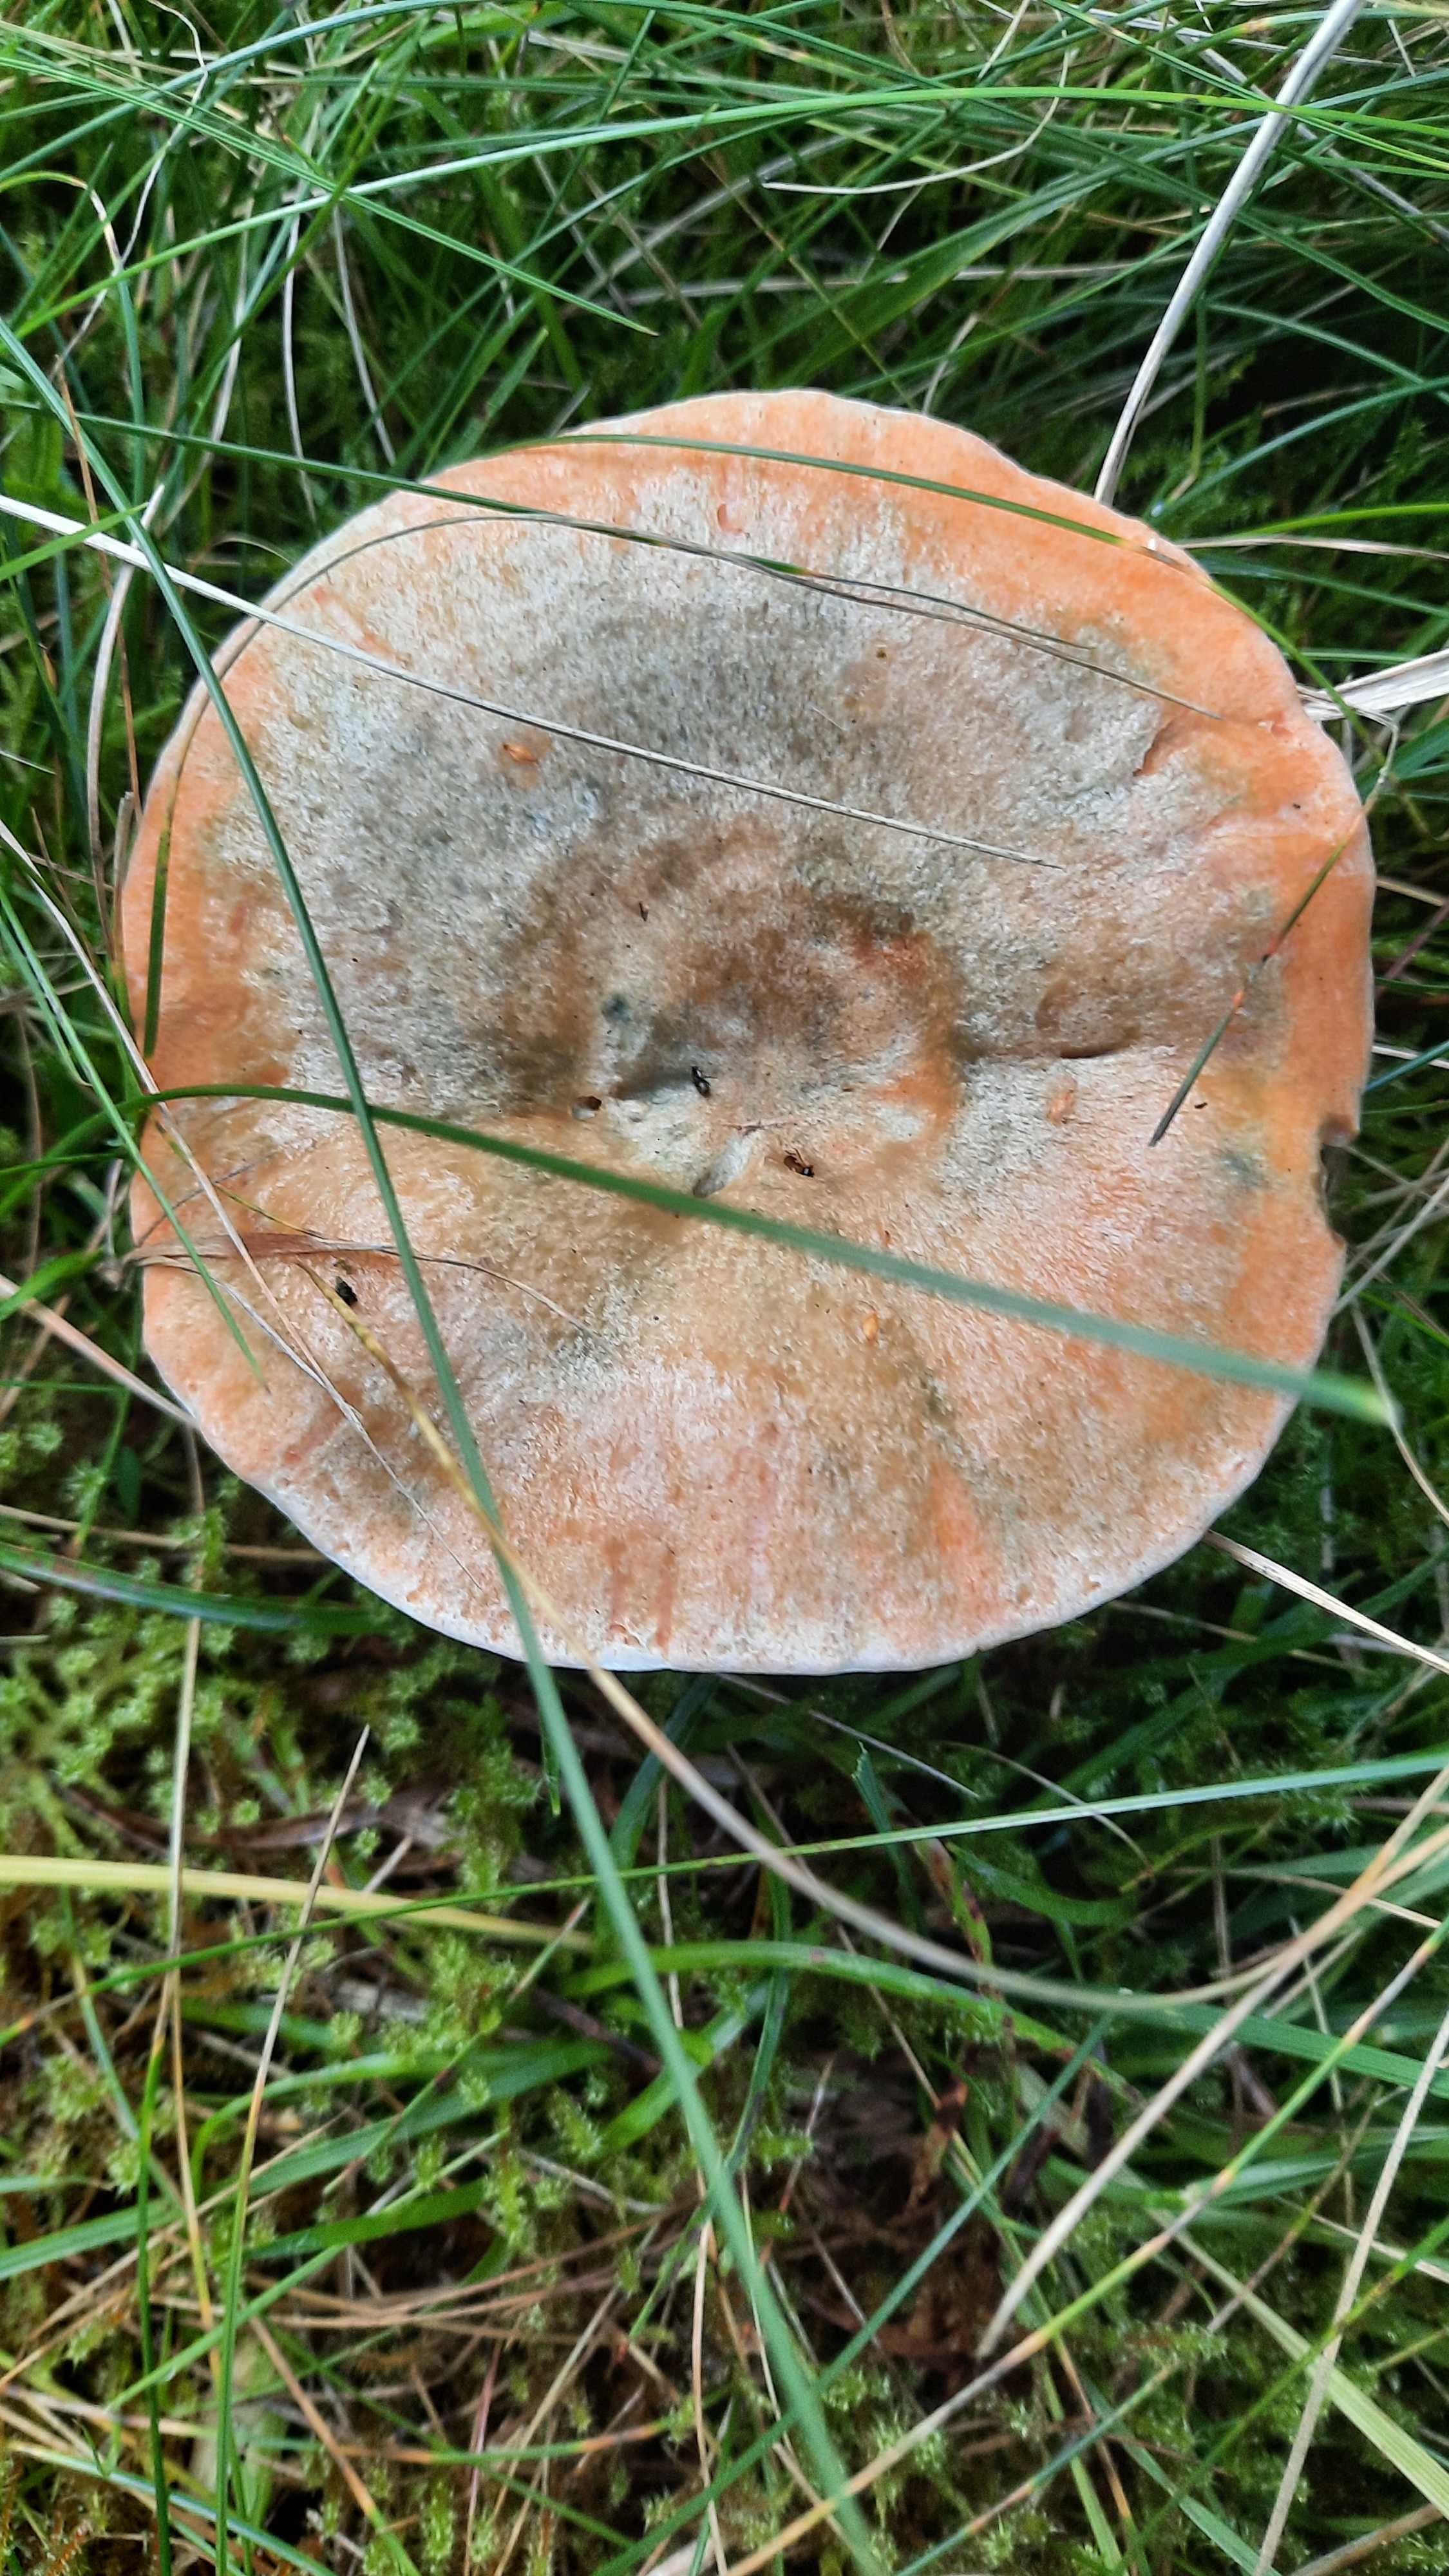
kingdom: Fungi
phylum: Basidiomycota
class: Agaricomycetes
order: Russulales
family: Russulaceae
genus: Lactarius
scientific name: Lactarius deterrimus
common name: gran-mælkehat
